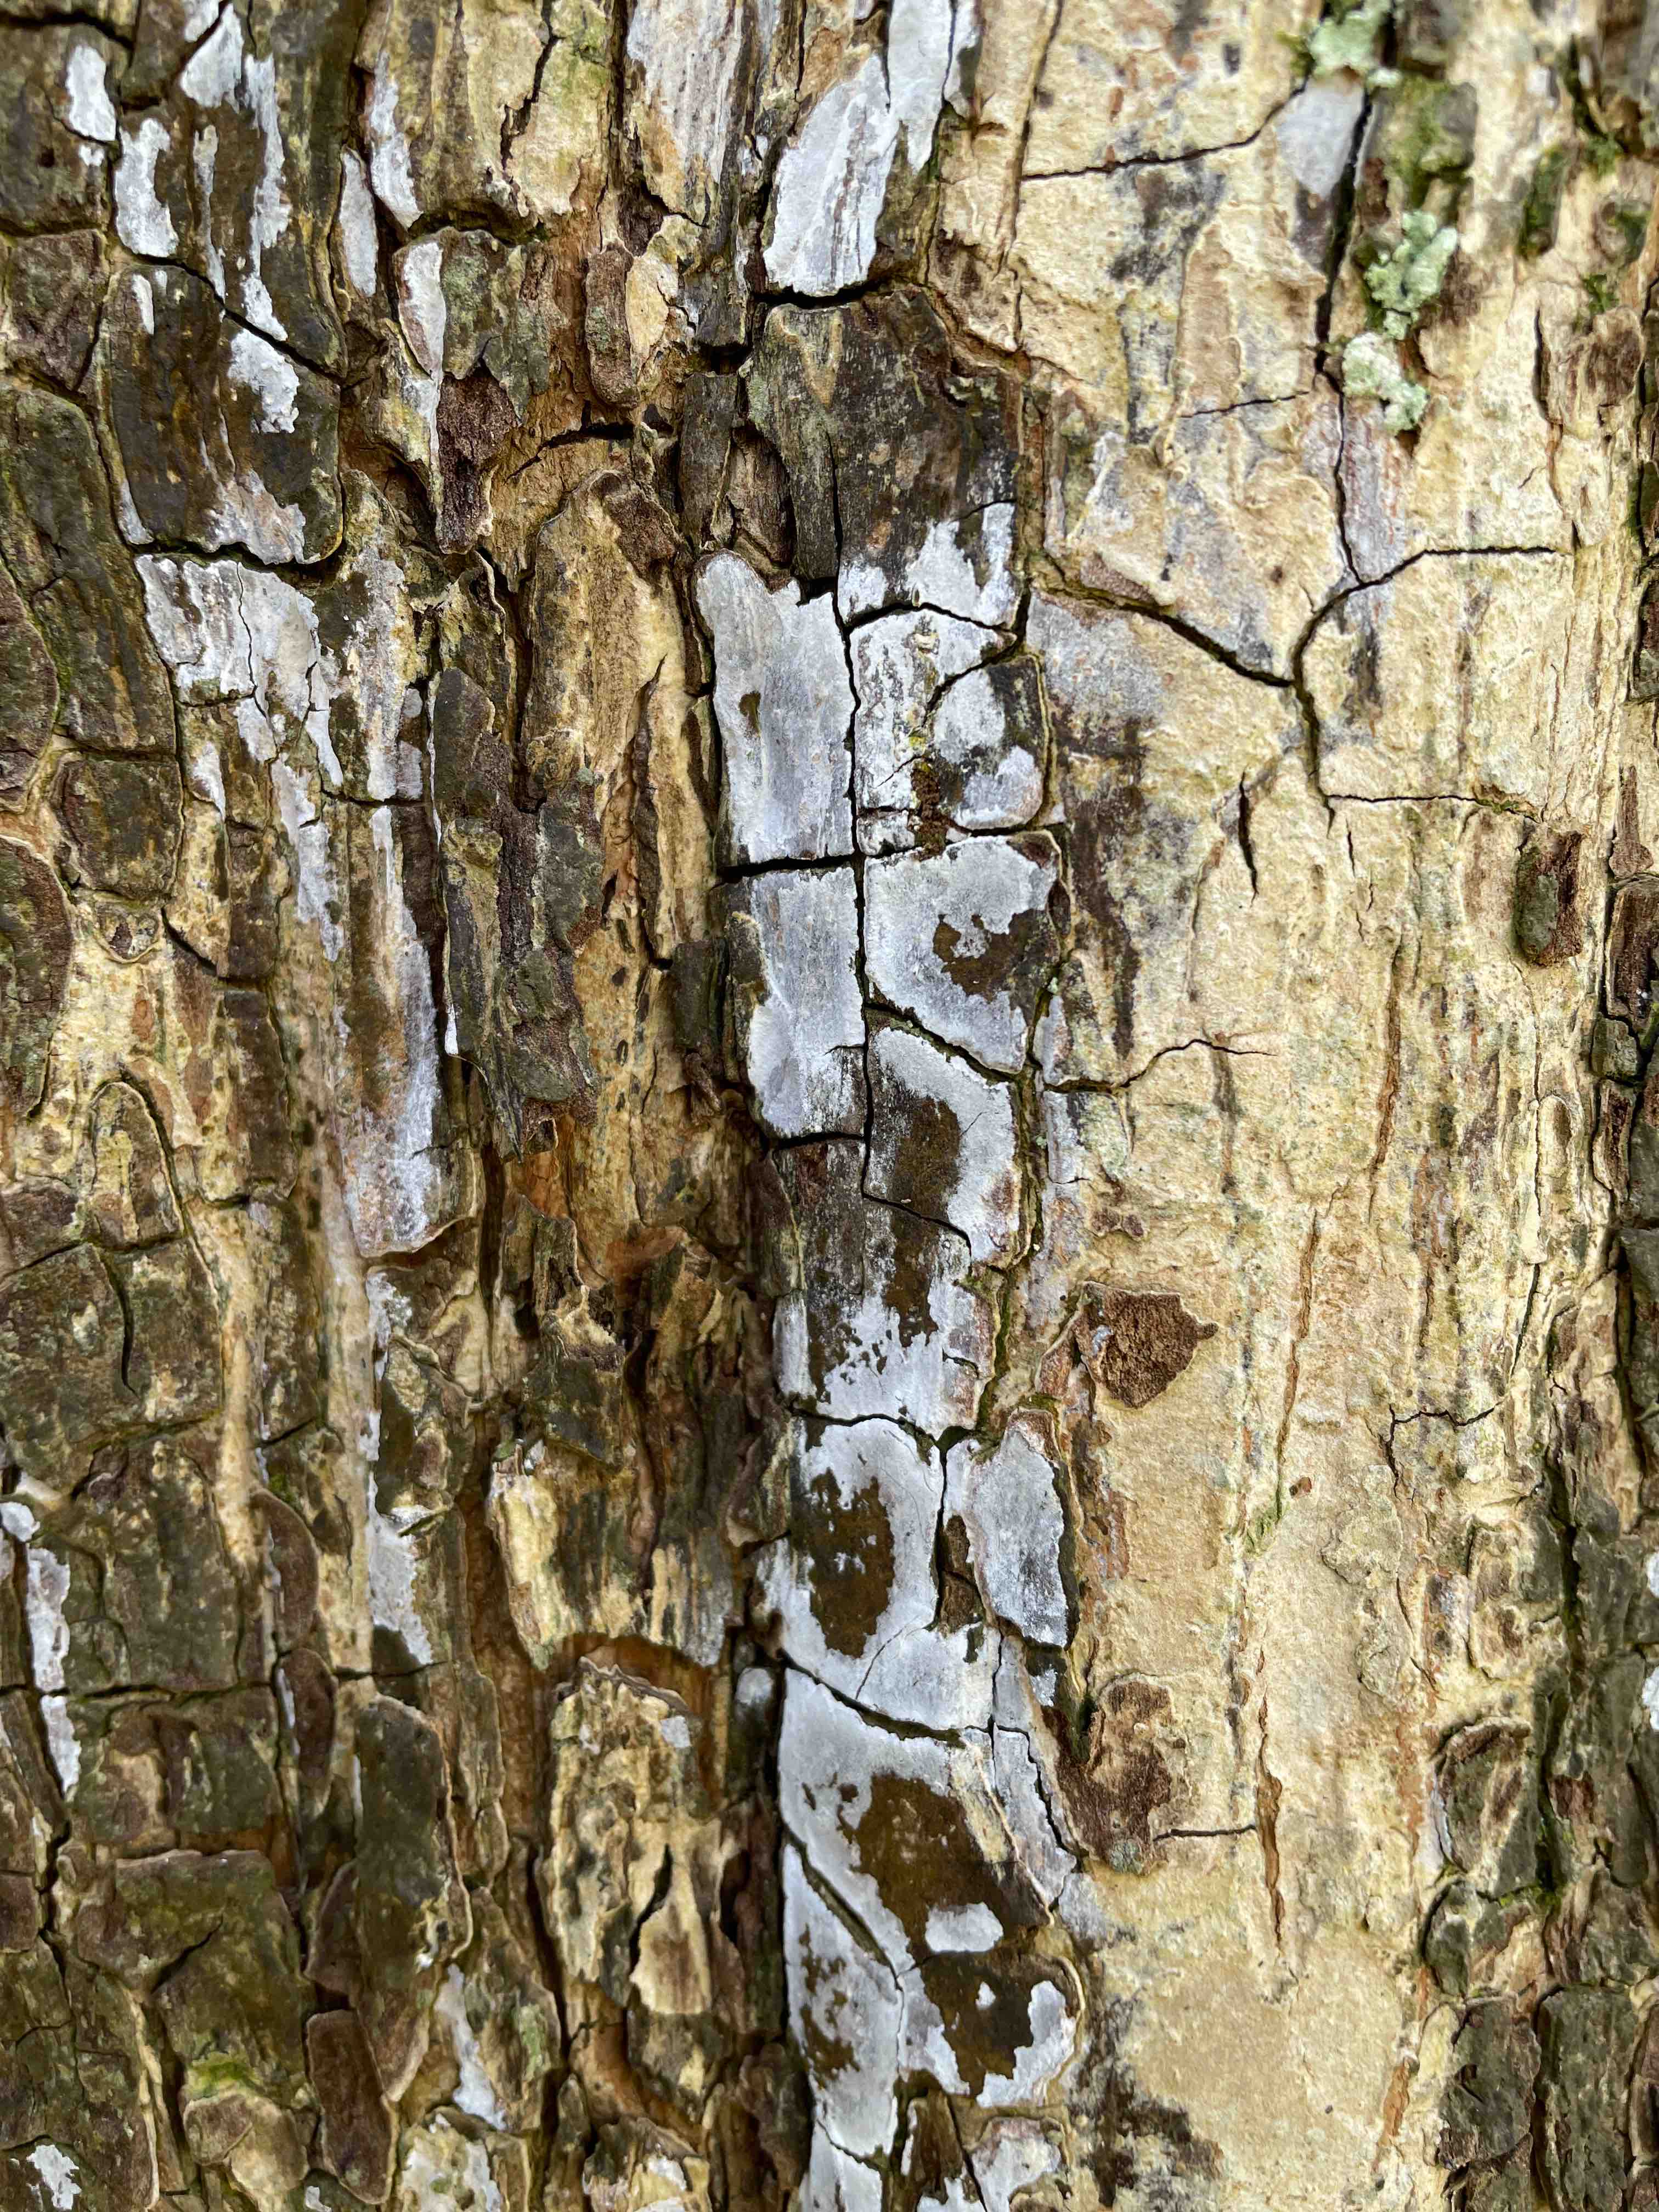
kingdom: Fungi
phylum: Basidiomycota
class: Agaricomycetes
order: Agaricales
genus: Dendrothele
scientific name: Dendrothele acerina
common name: navr-kalkplet
